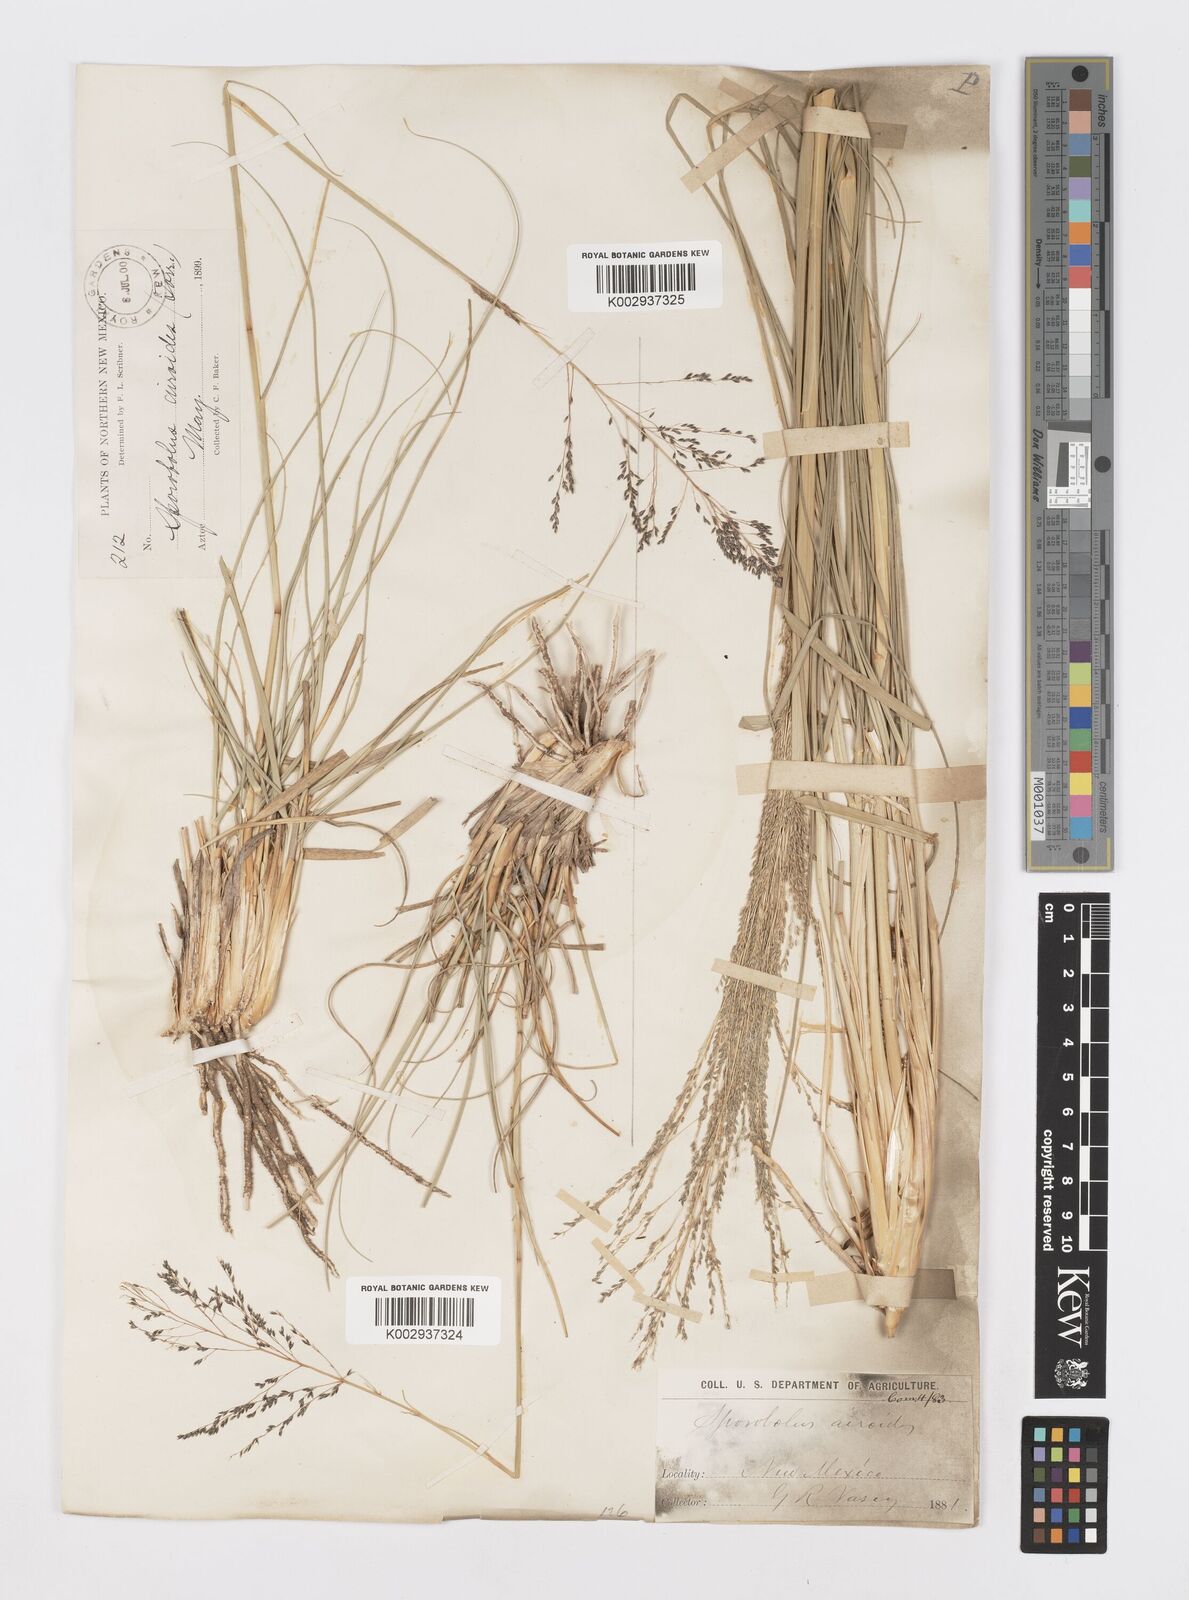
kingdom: Plantae
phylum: Tracheophyta
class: Liliopsida
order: Poales
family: Poaceae
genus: Sporobolus
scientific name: Sporobolus airoides
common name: Alkali sacaton
